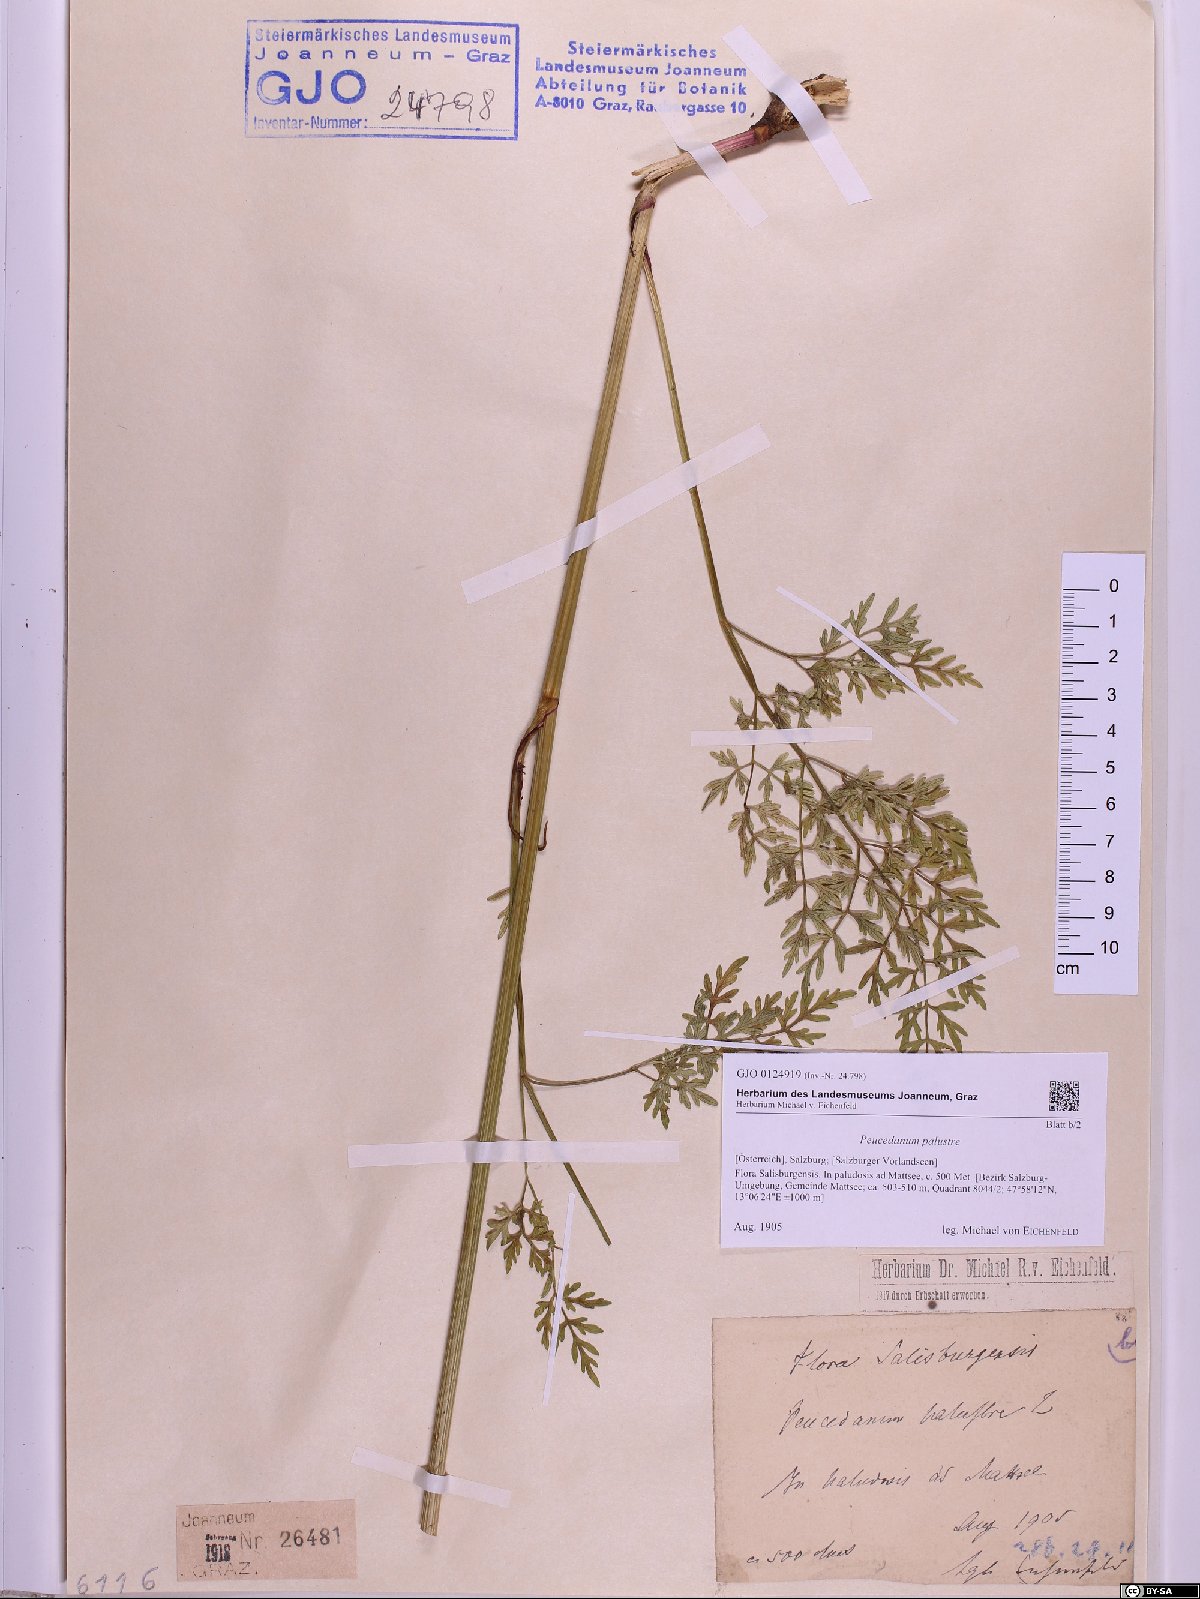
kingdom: Plantae
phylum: Tracheophyta
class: Magnoliopsida
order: Apiales
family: Apiaceae
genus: Thysselinum
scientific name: Thysselinum palustre
